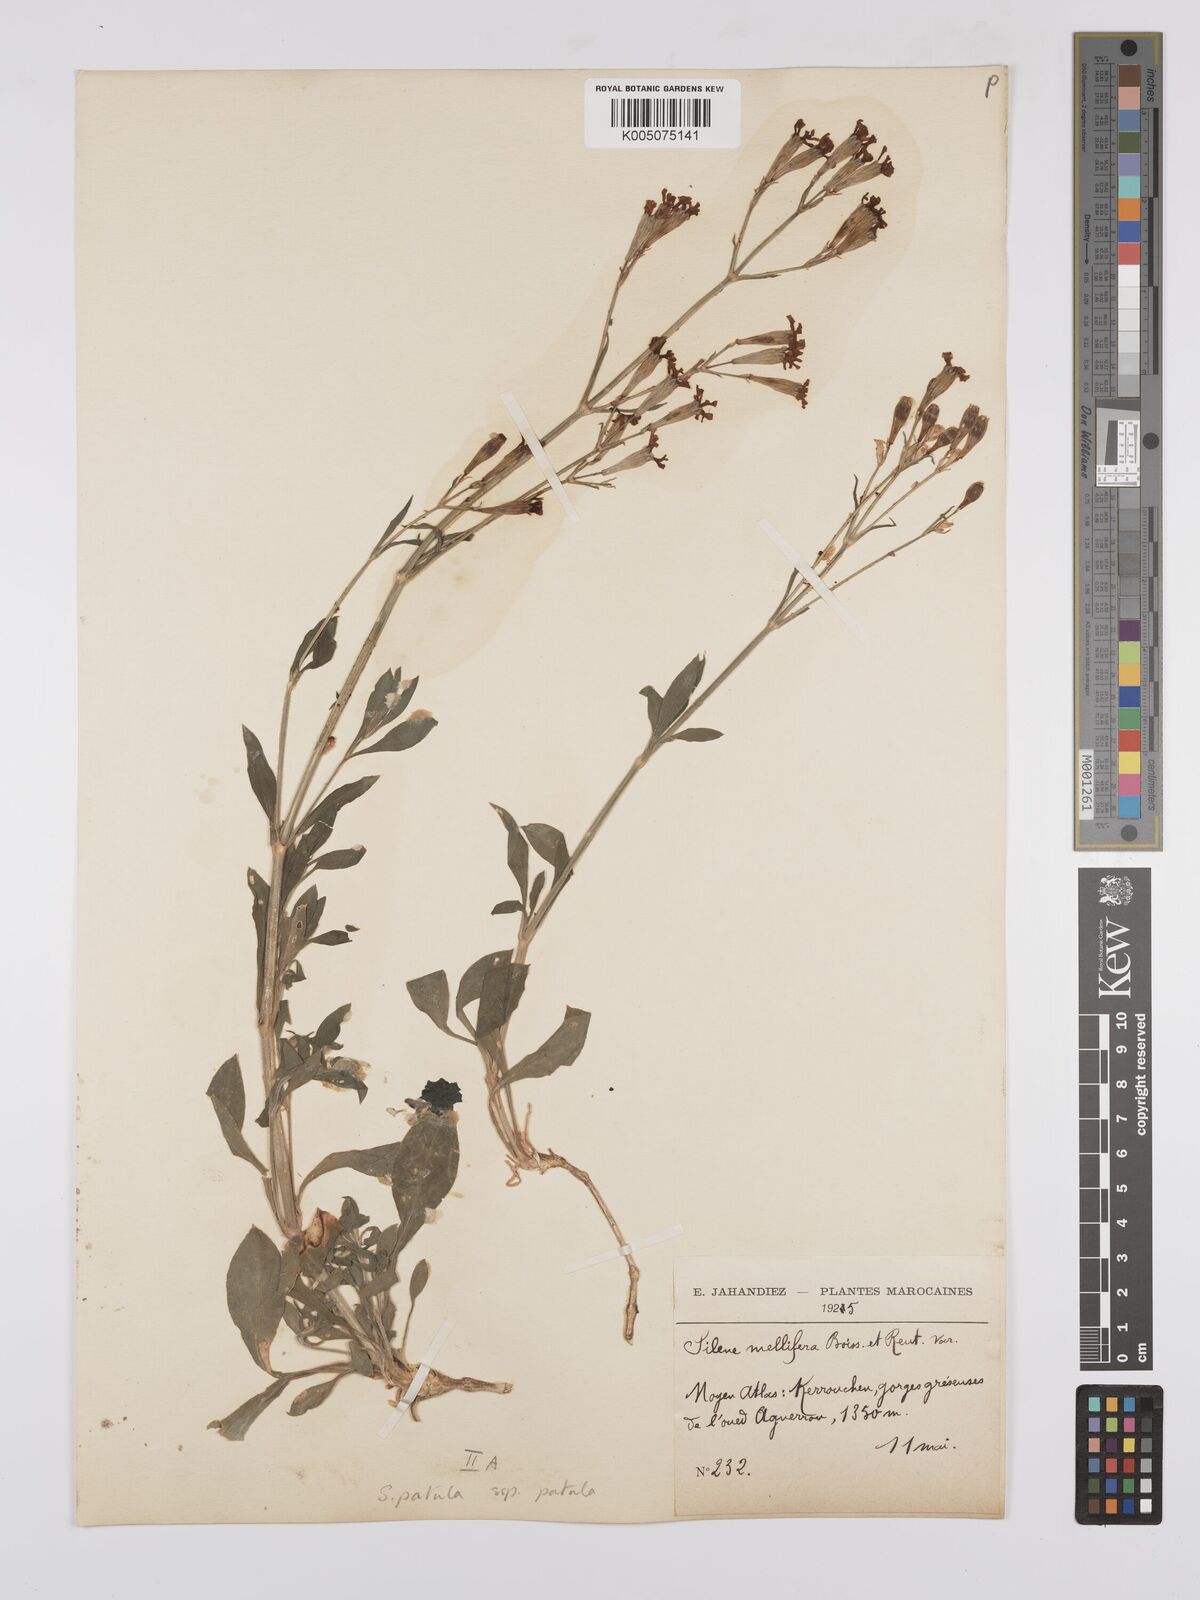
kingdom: Plantae
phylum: Tracheophyta
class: Magnoliopsida
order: Caryophyllales
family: Caryophyllaceae
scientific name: Caryophyllaceae
